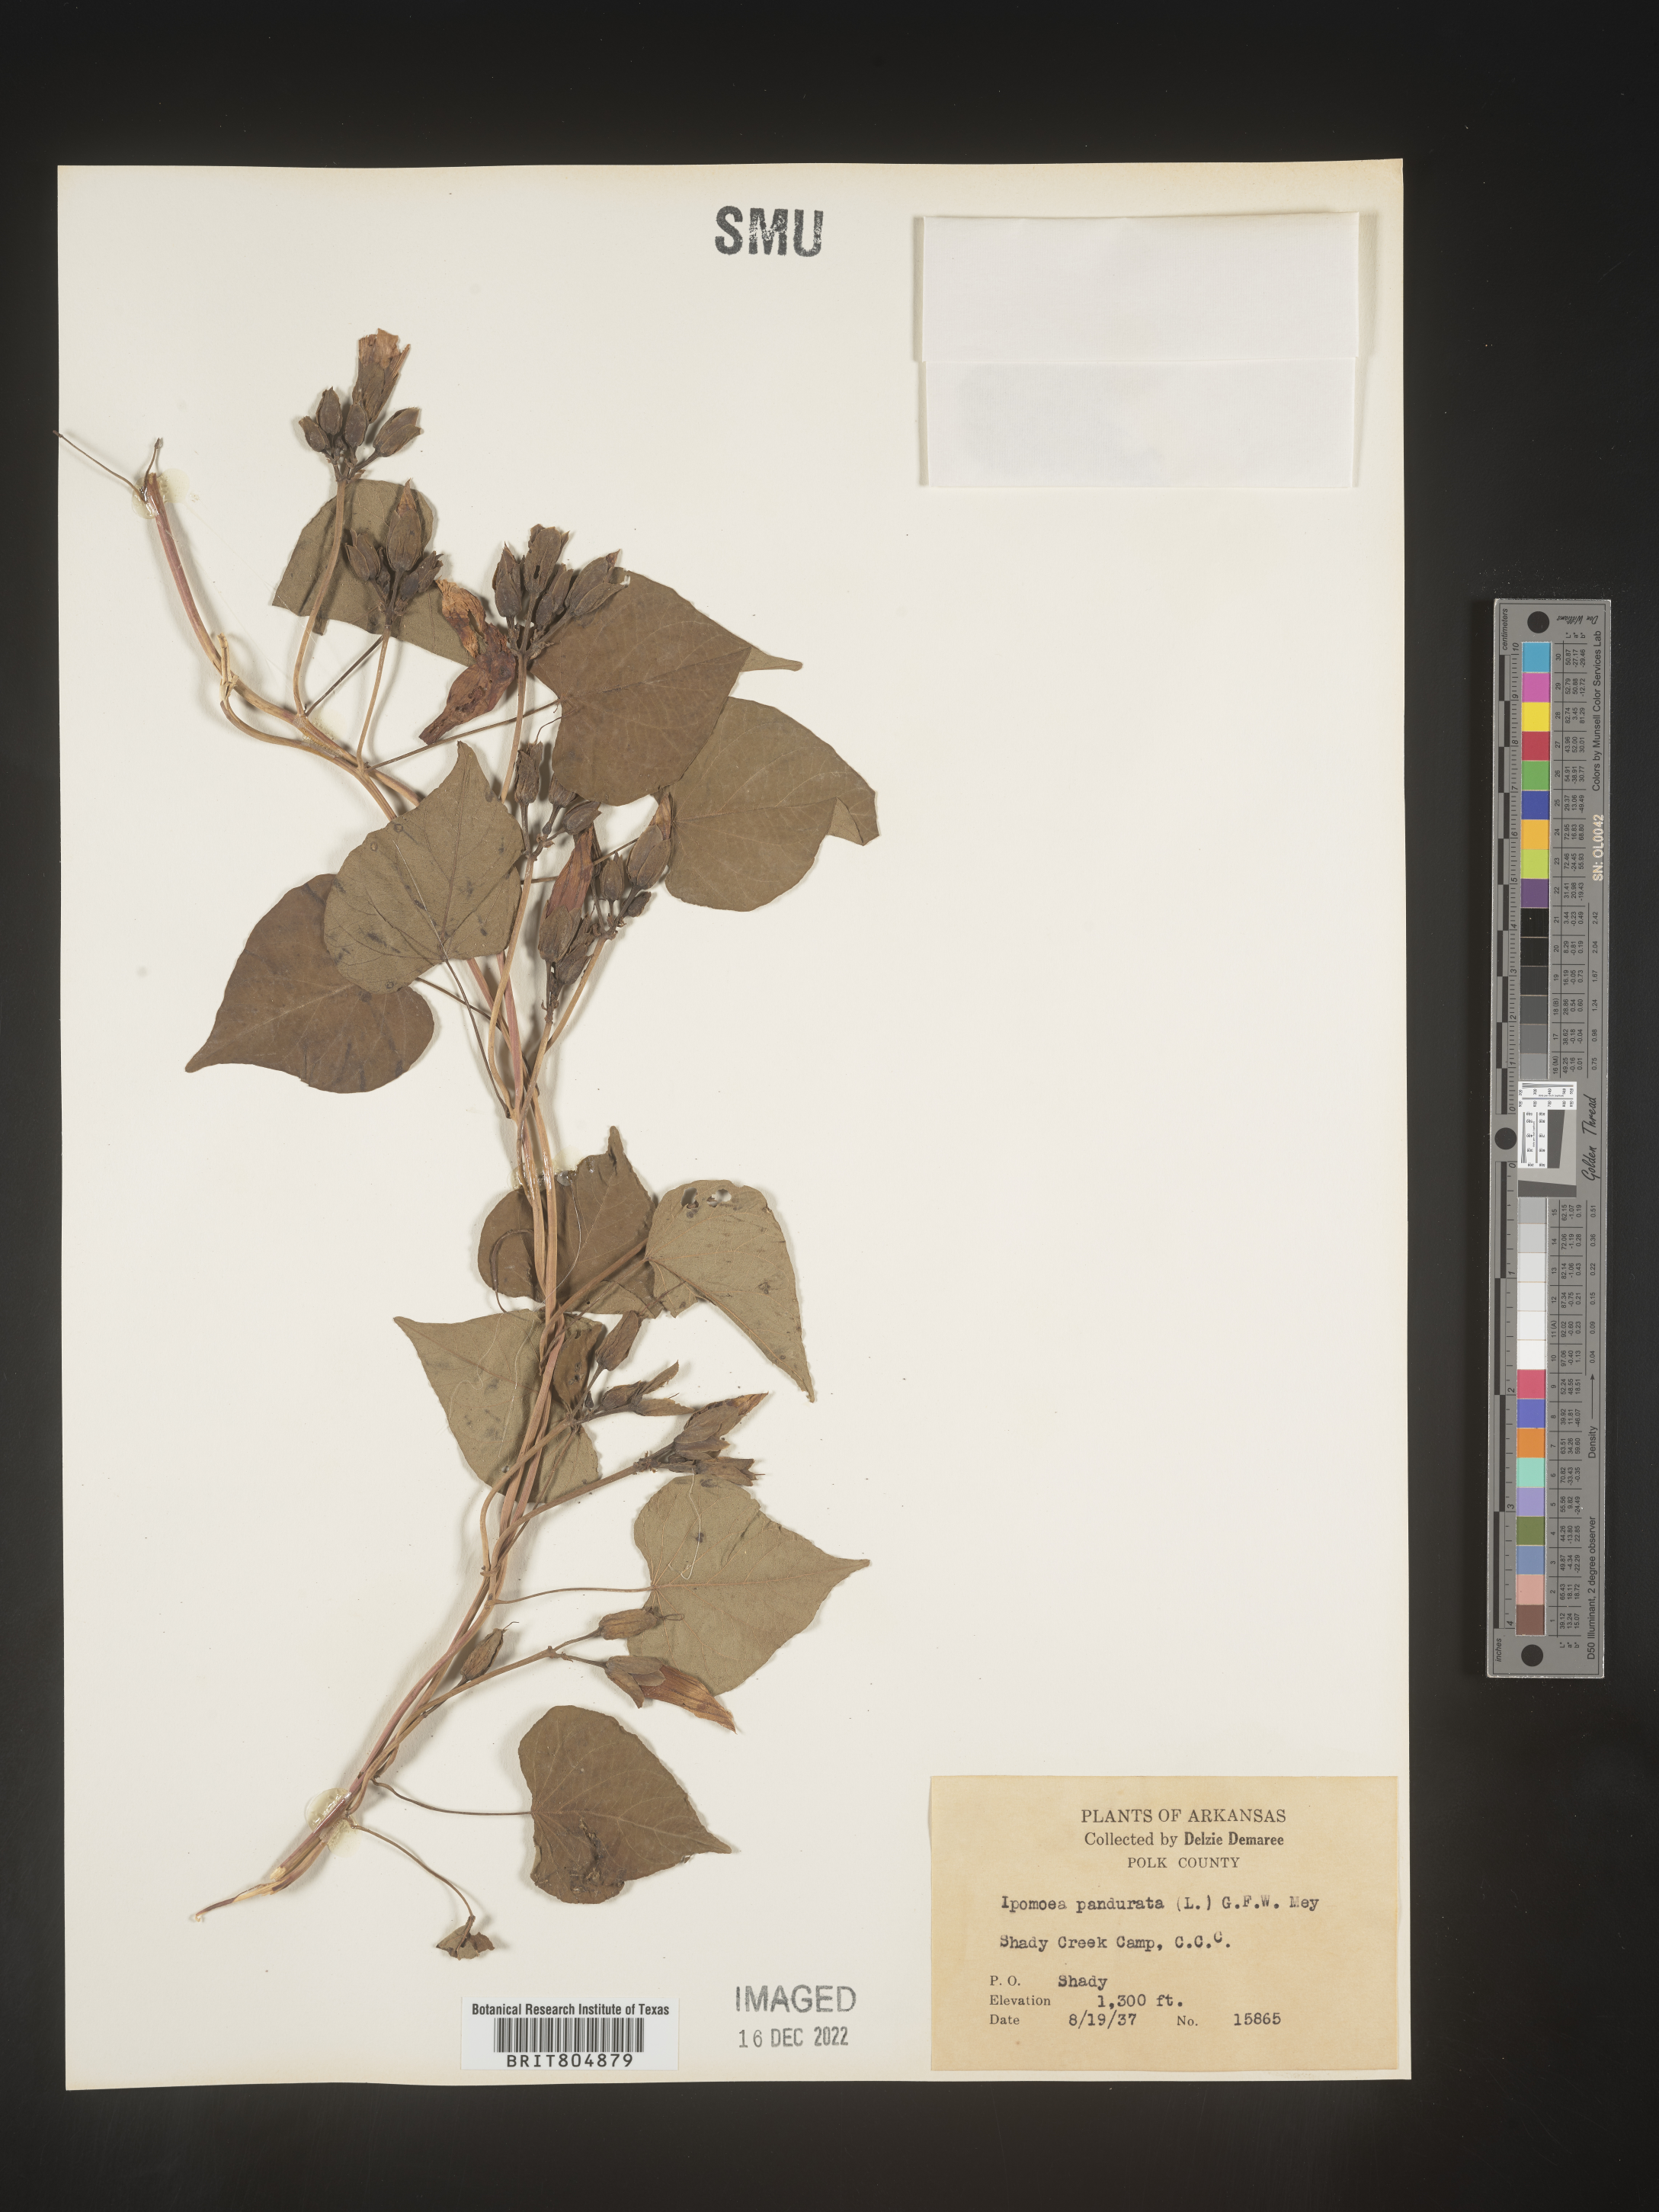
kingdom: Plantae
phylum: Tracheophyta
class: Magnoliopsida
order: Solanales
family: Convolvulaceae
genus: Ipomoea
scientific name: Ipomoea pandurata
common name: Man-of-the-earth
